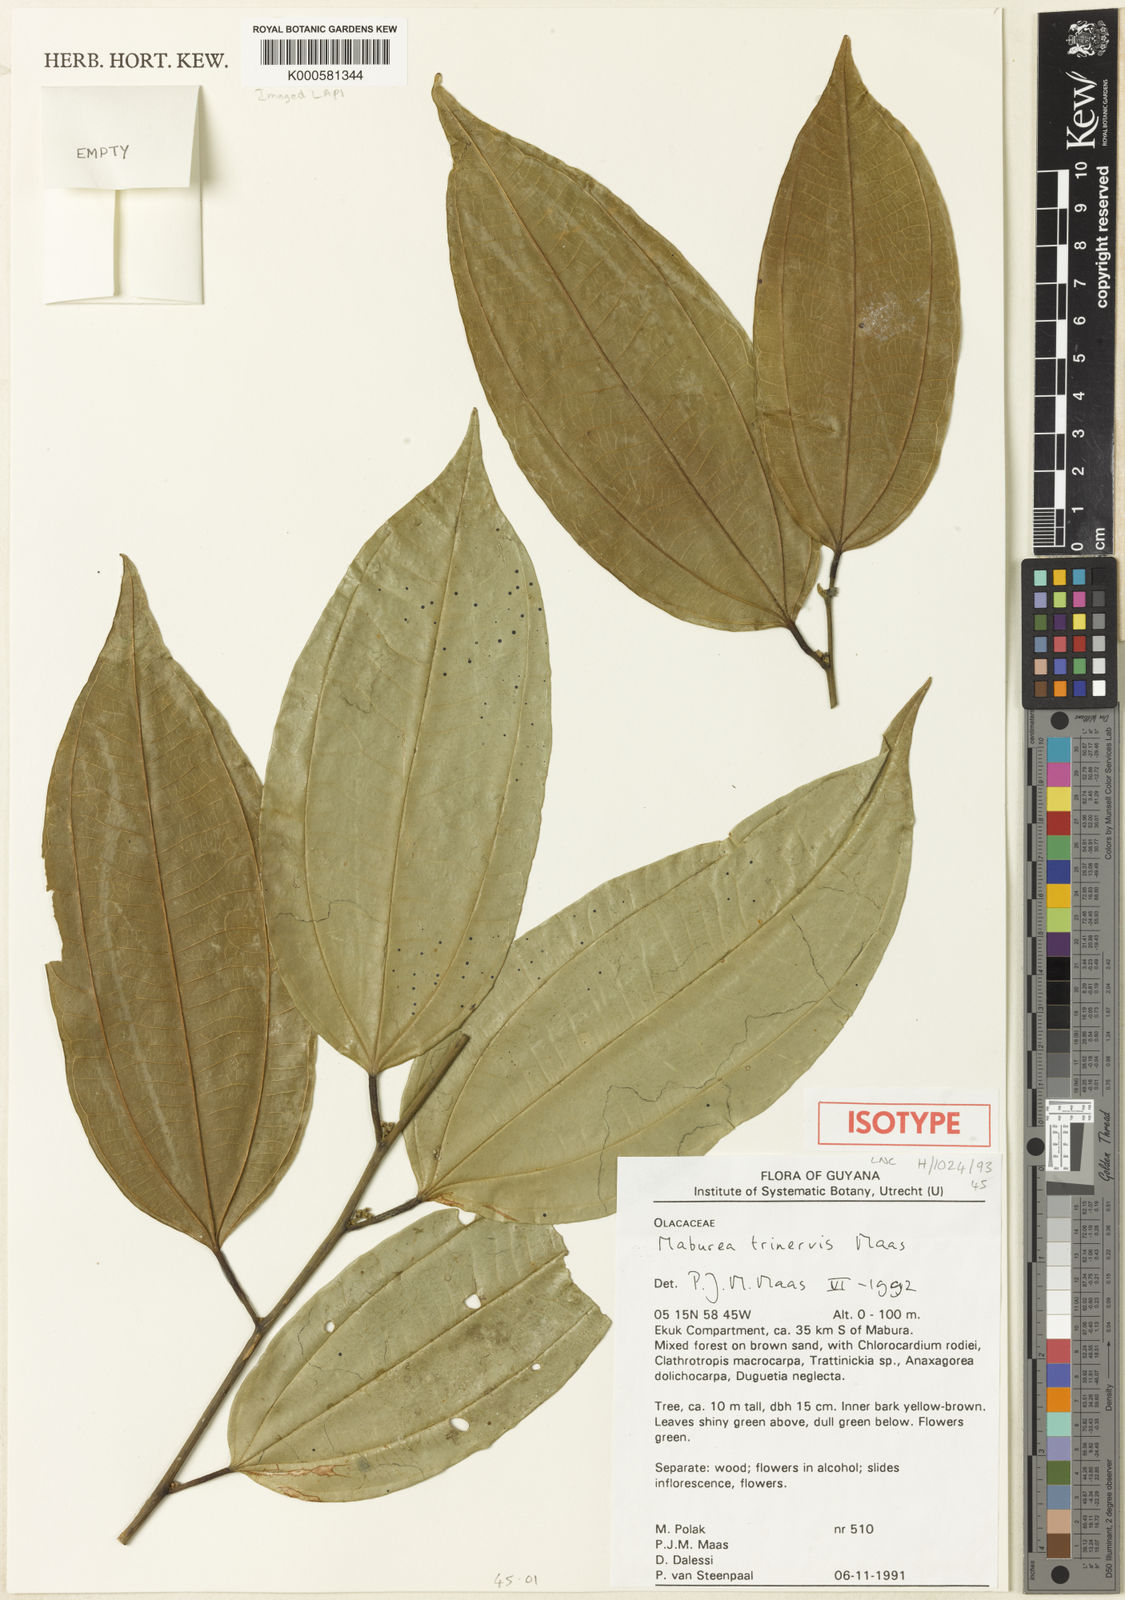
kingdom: Plantae
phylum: Tracheophyta
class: Magnoliopsida
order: Santalales
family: Erythropalaceae
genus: Maburea
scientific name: Maburea trinervis
